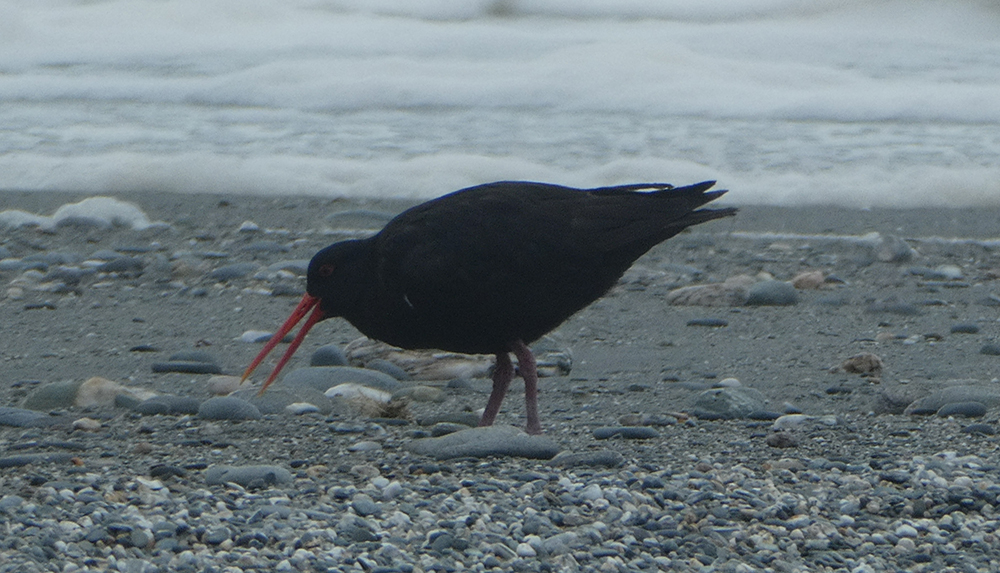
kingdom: Animalia
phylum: Chordata
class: Aves
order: Charadriiformes
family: Haematopodidae
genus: Haematopus
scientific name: Haematopus unicolor
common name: Variable oystercatcher
